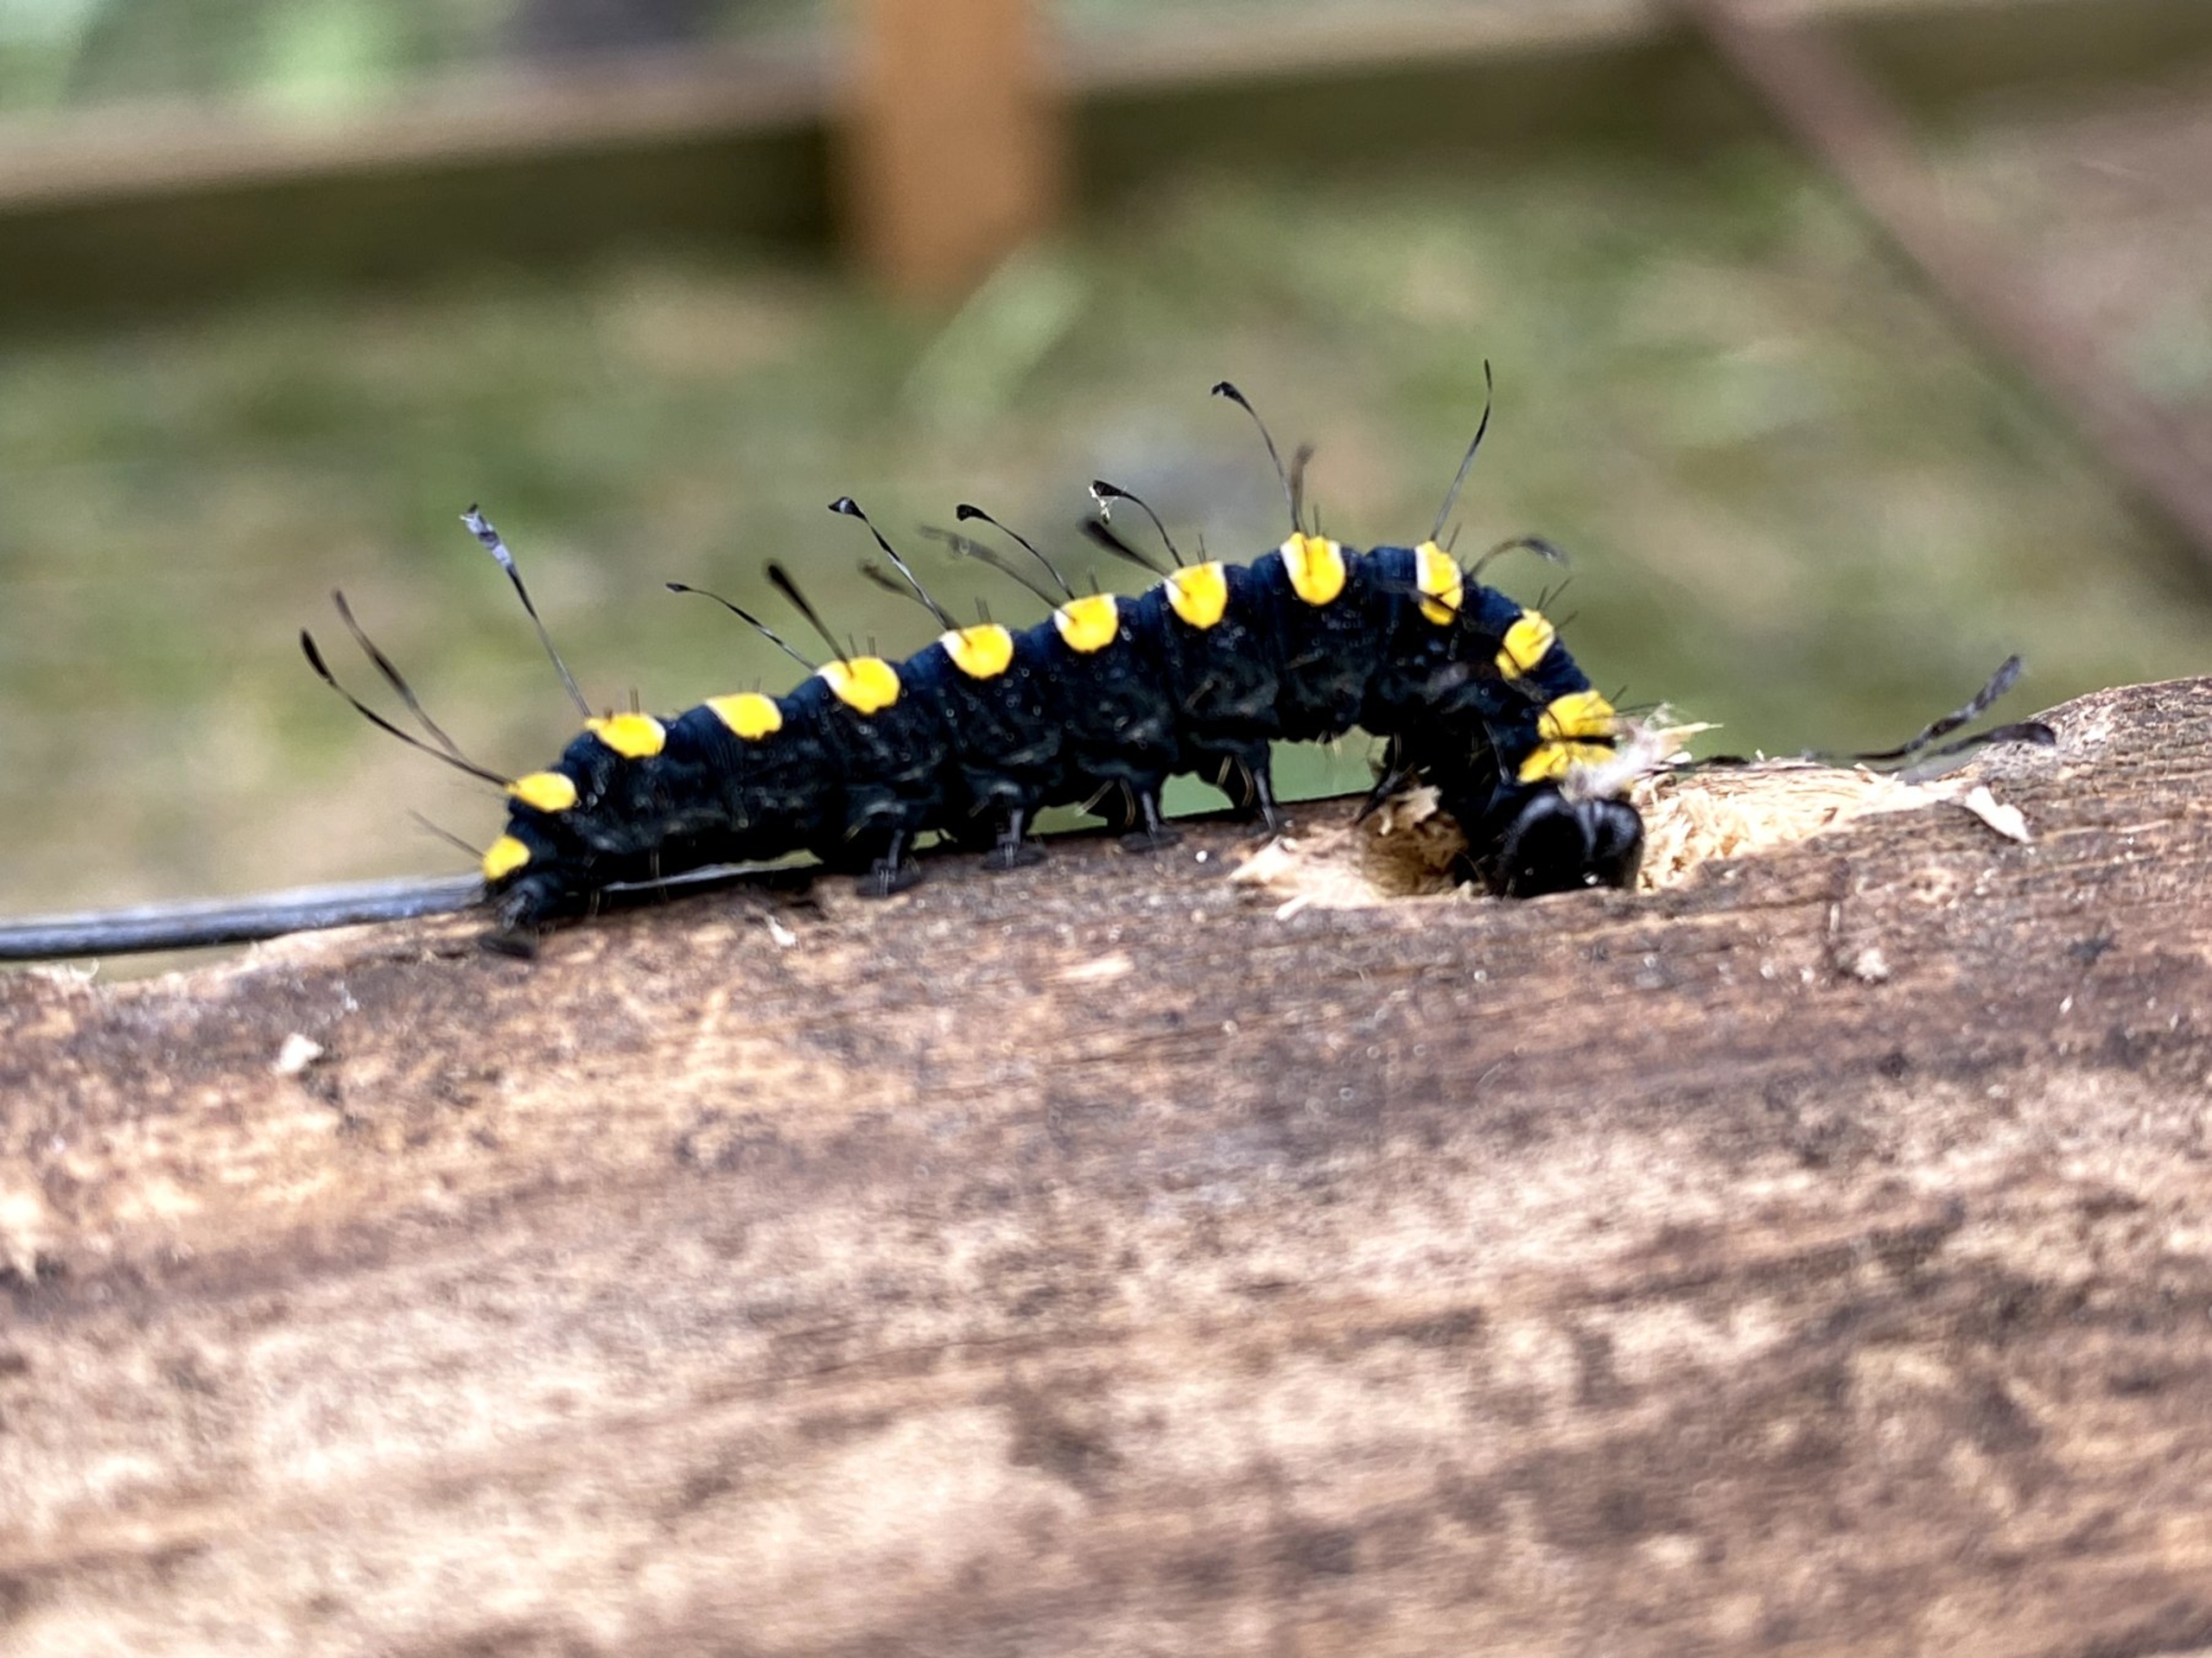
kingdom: Animalia
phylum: Arthropoda
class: Insecta
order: Lepidoptera
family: Noctuidae
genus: Acronicta
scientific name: Acronicta alni
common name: Kølleugle
